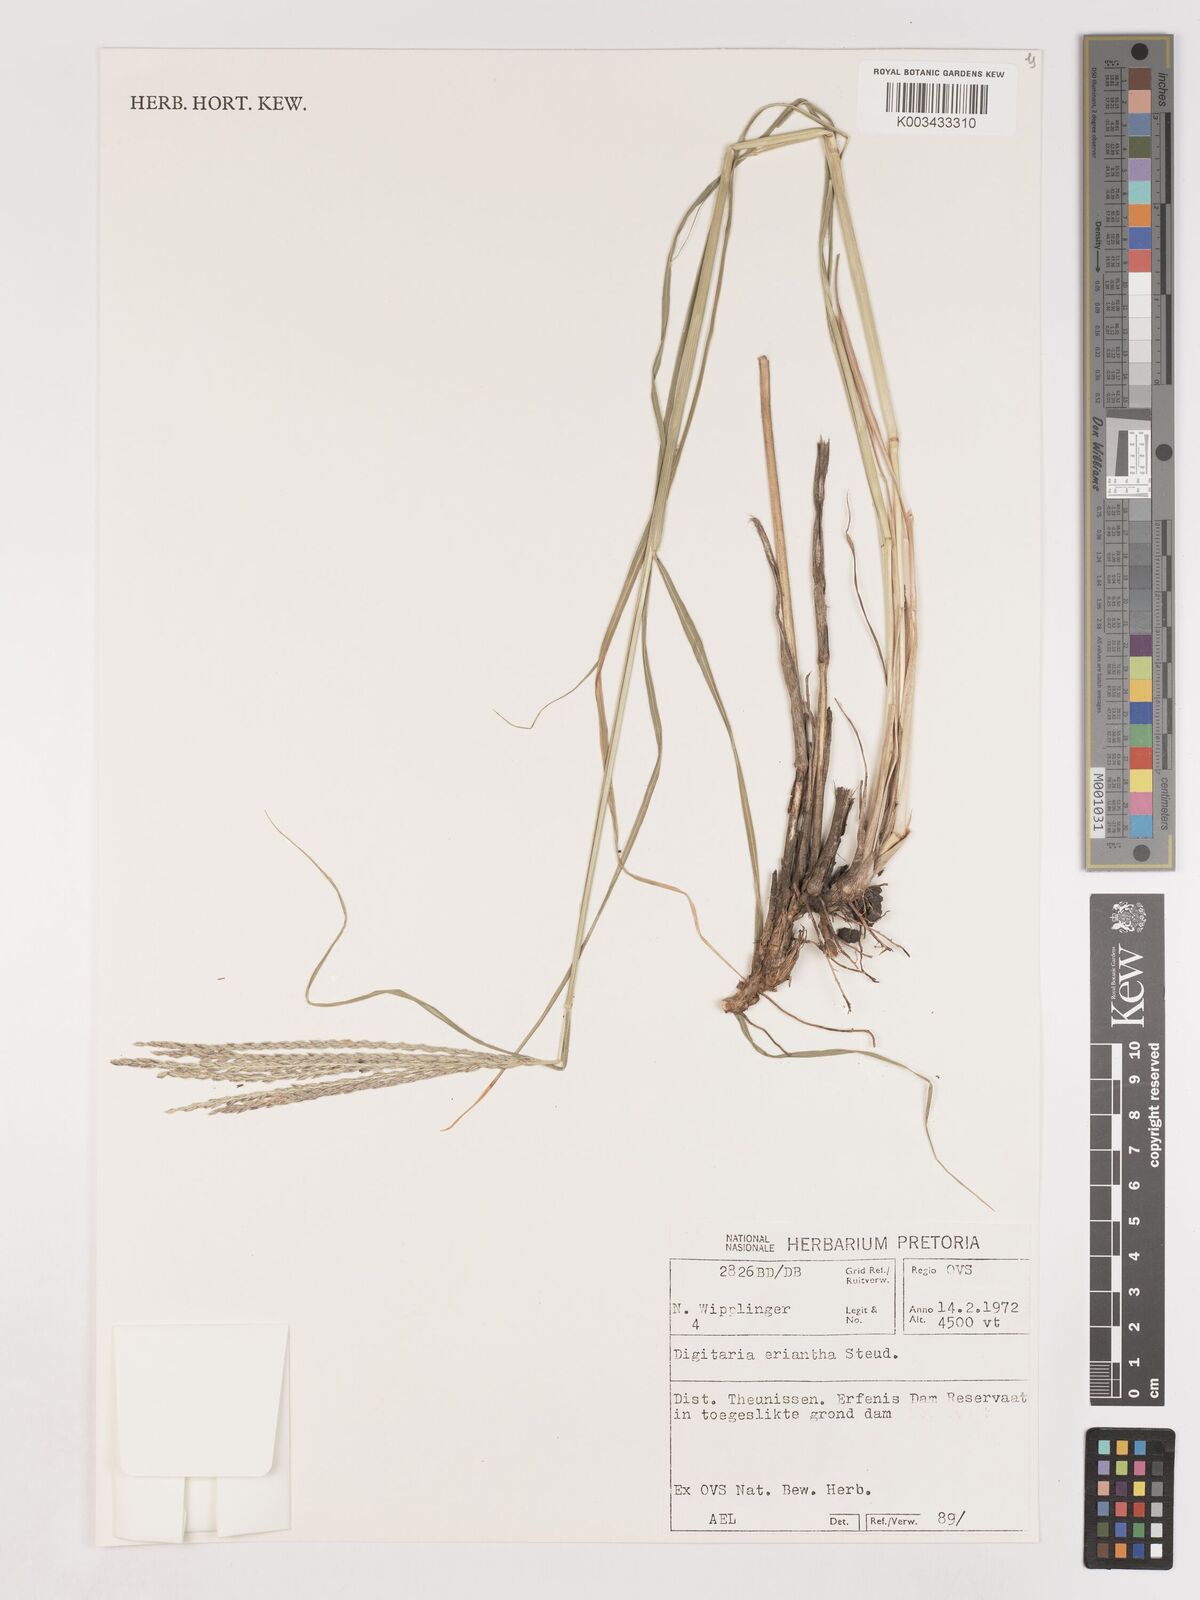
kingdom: Plantae
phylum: Tracheophyta
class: Liliopsida
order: Poales
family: Poaceae
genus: Digitaria
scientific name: Digitaria eriantha
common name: Digitgrass
